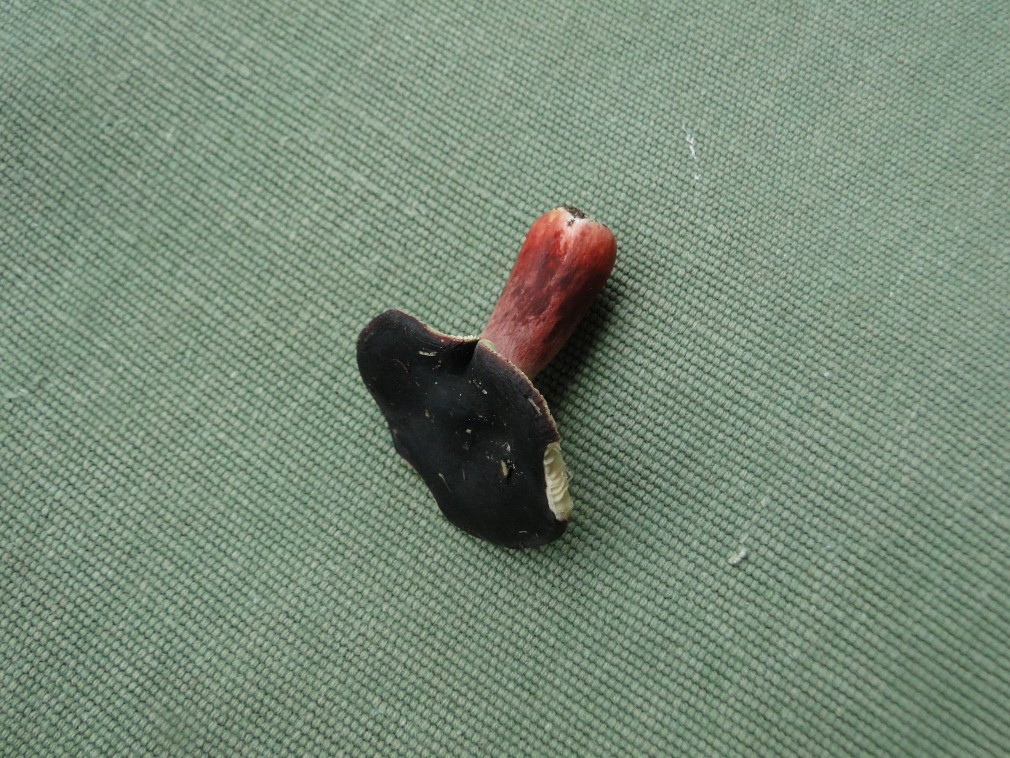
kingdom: Fungi
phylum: Basidiomycota
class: Agaricomycetes
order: Russulales
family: Russulaceae
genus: Russula
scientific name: Russula queletii
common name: Quélets skørhat
